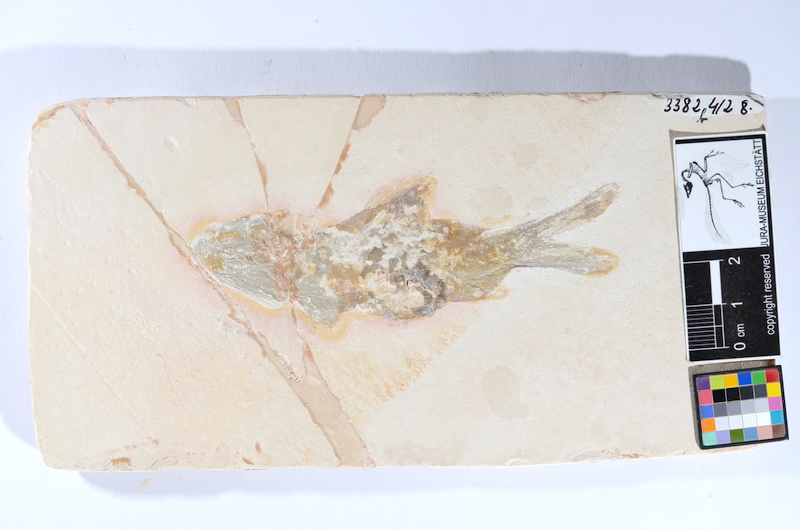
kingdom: Animalia
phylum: Chordata
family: Coccolepididae
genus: Coccolepis
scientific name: Coccolepis bucklandi
